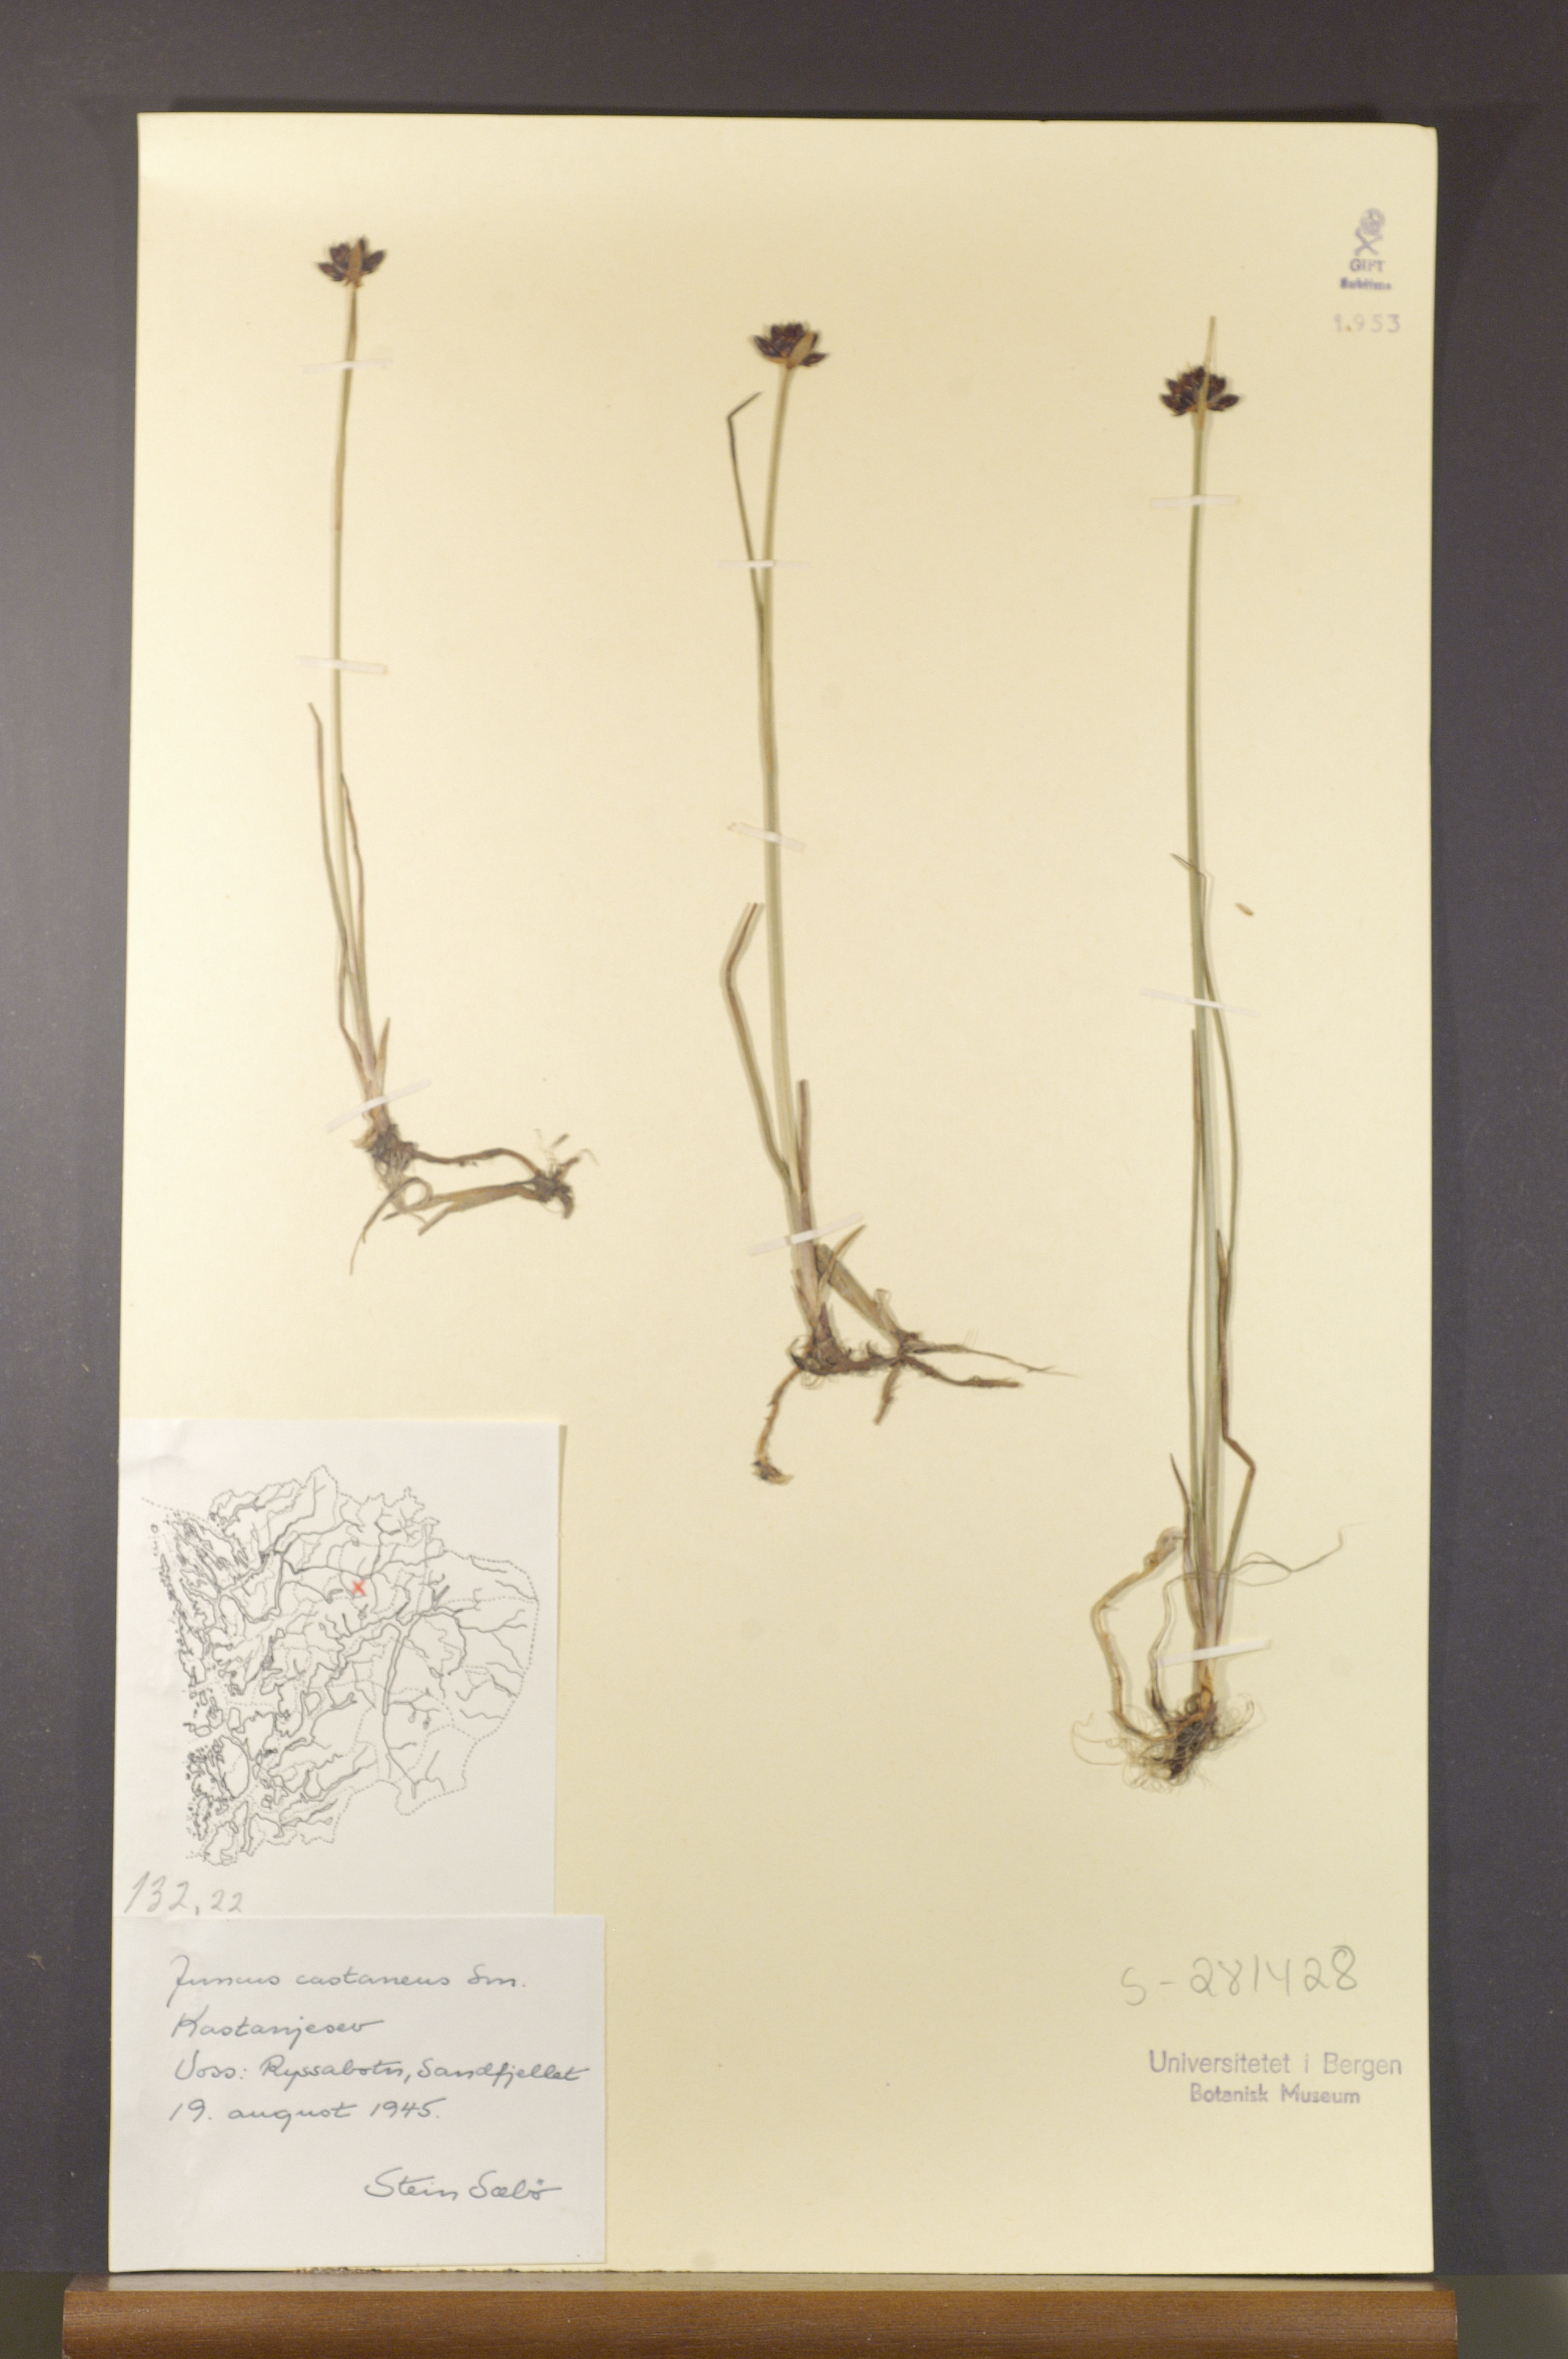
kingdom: Plantae
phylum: Tracheophyta
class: Liliopsida
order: Poales
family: Juncaceae
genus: Juncus
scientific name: Juncus castaneus
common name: Chestnut rush
